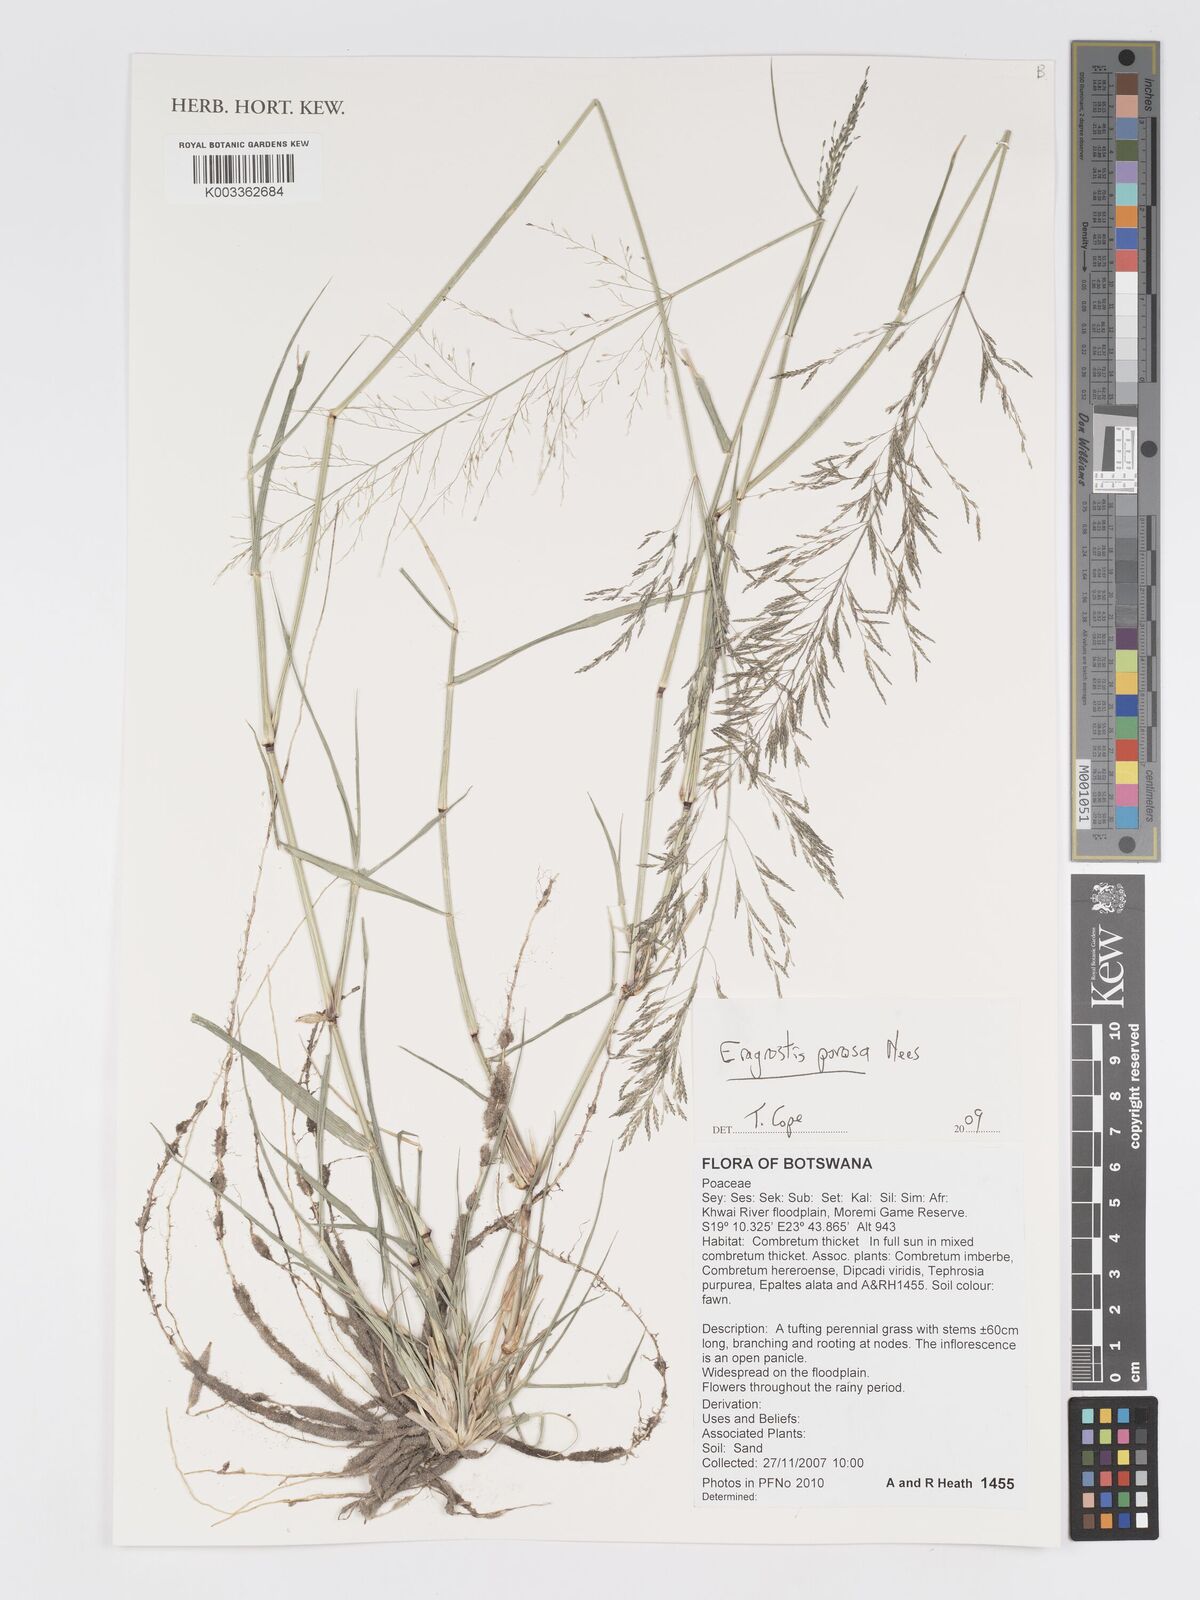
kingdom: Plantae
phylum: Tracheophyta
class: Liliopsida
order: Poales
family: Poaceae
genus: Eragrostis
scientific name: Eragrostis porosa
